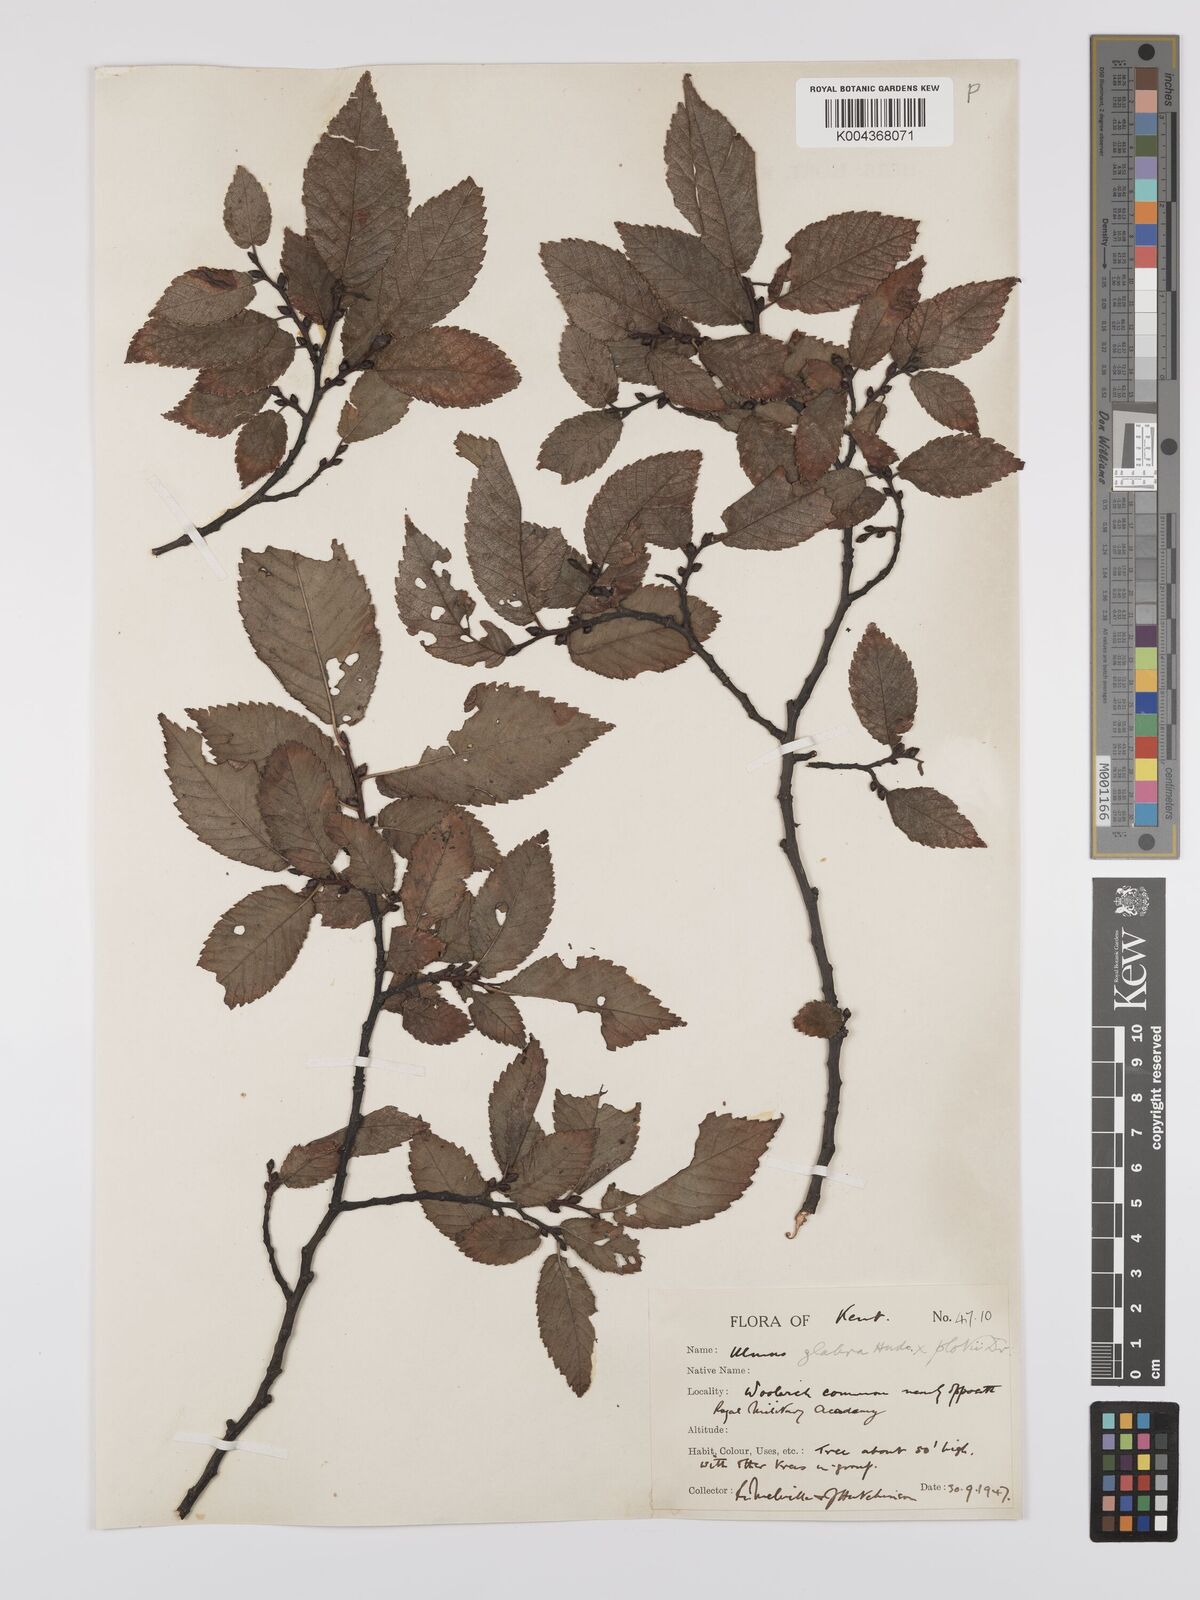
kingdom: Plantae
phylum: Tracheophyta
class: Magnoliopsida
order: Rosales
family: Ulmaceae
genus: Ulmus
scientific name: Ulmus
